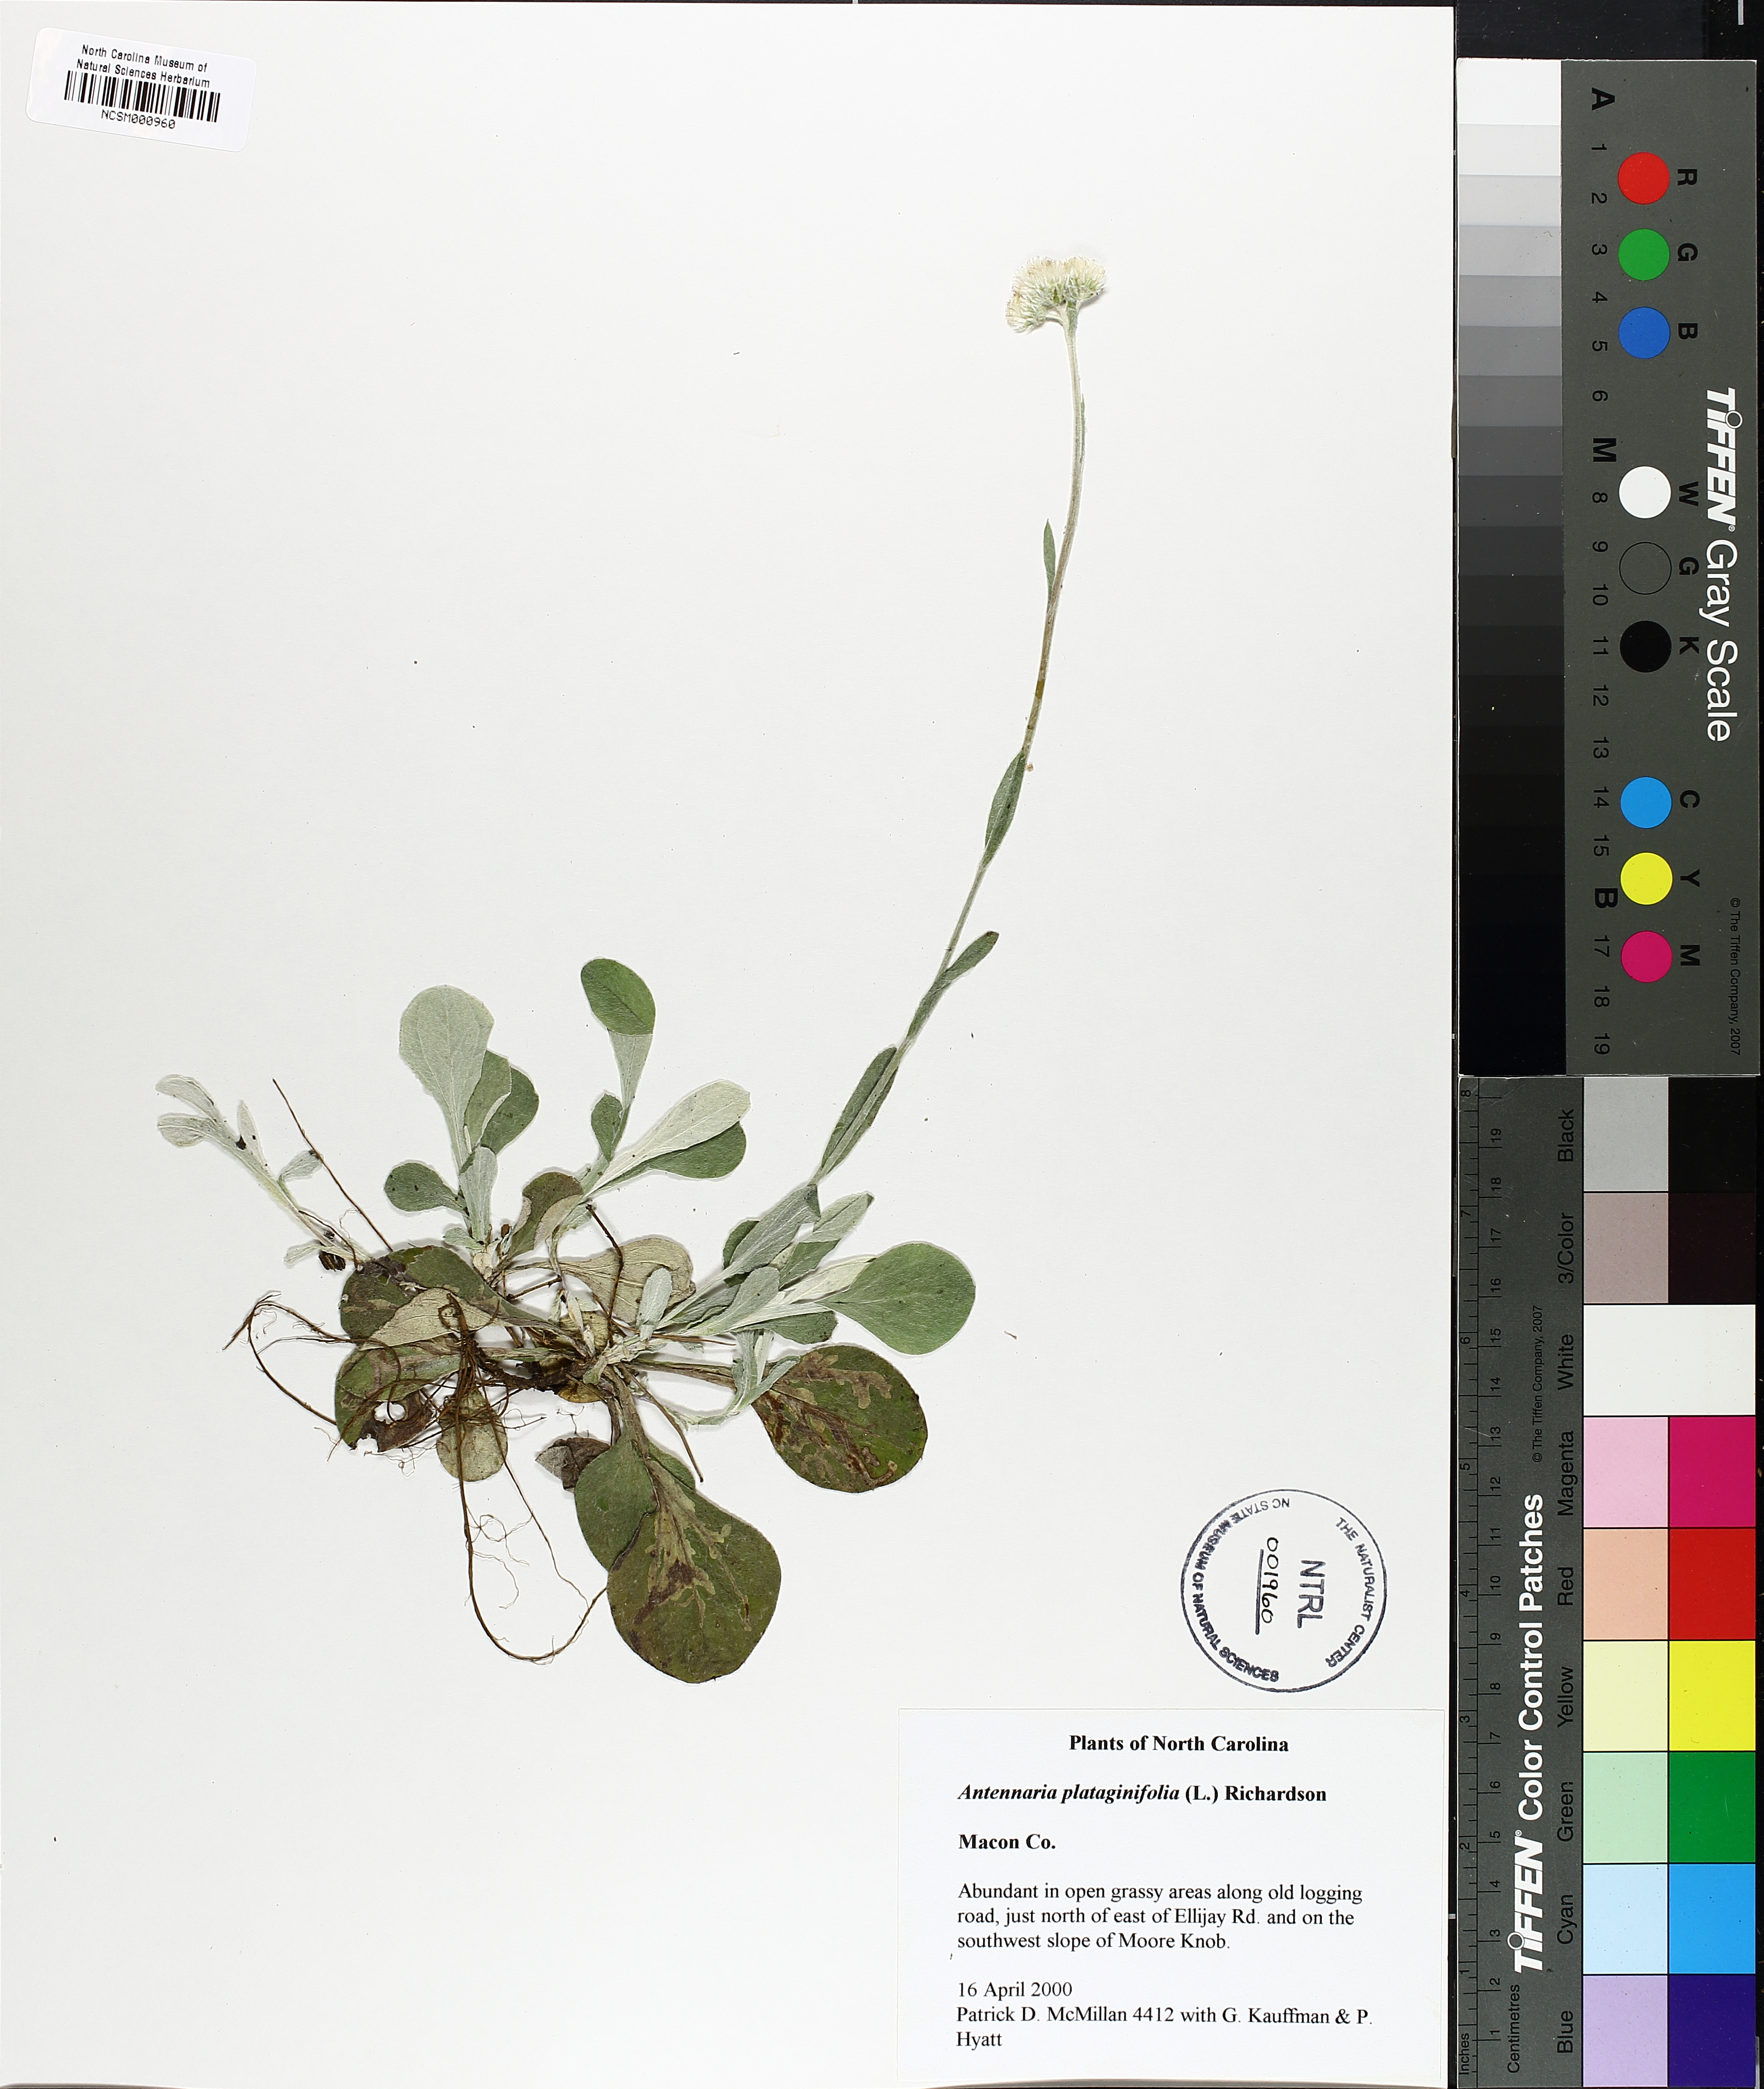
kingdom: Plantae
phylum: Tracheophyta
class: Magnoliopsida
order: Asterales
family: Asteraceae
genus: Antennaria
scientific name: Antennaria plantaginifolia
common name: Plantain-leaved pussytoes
